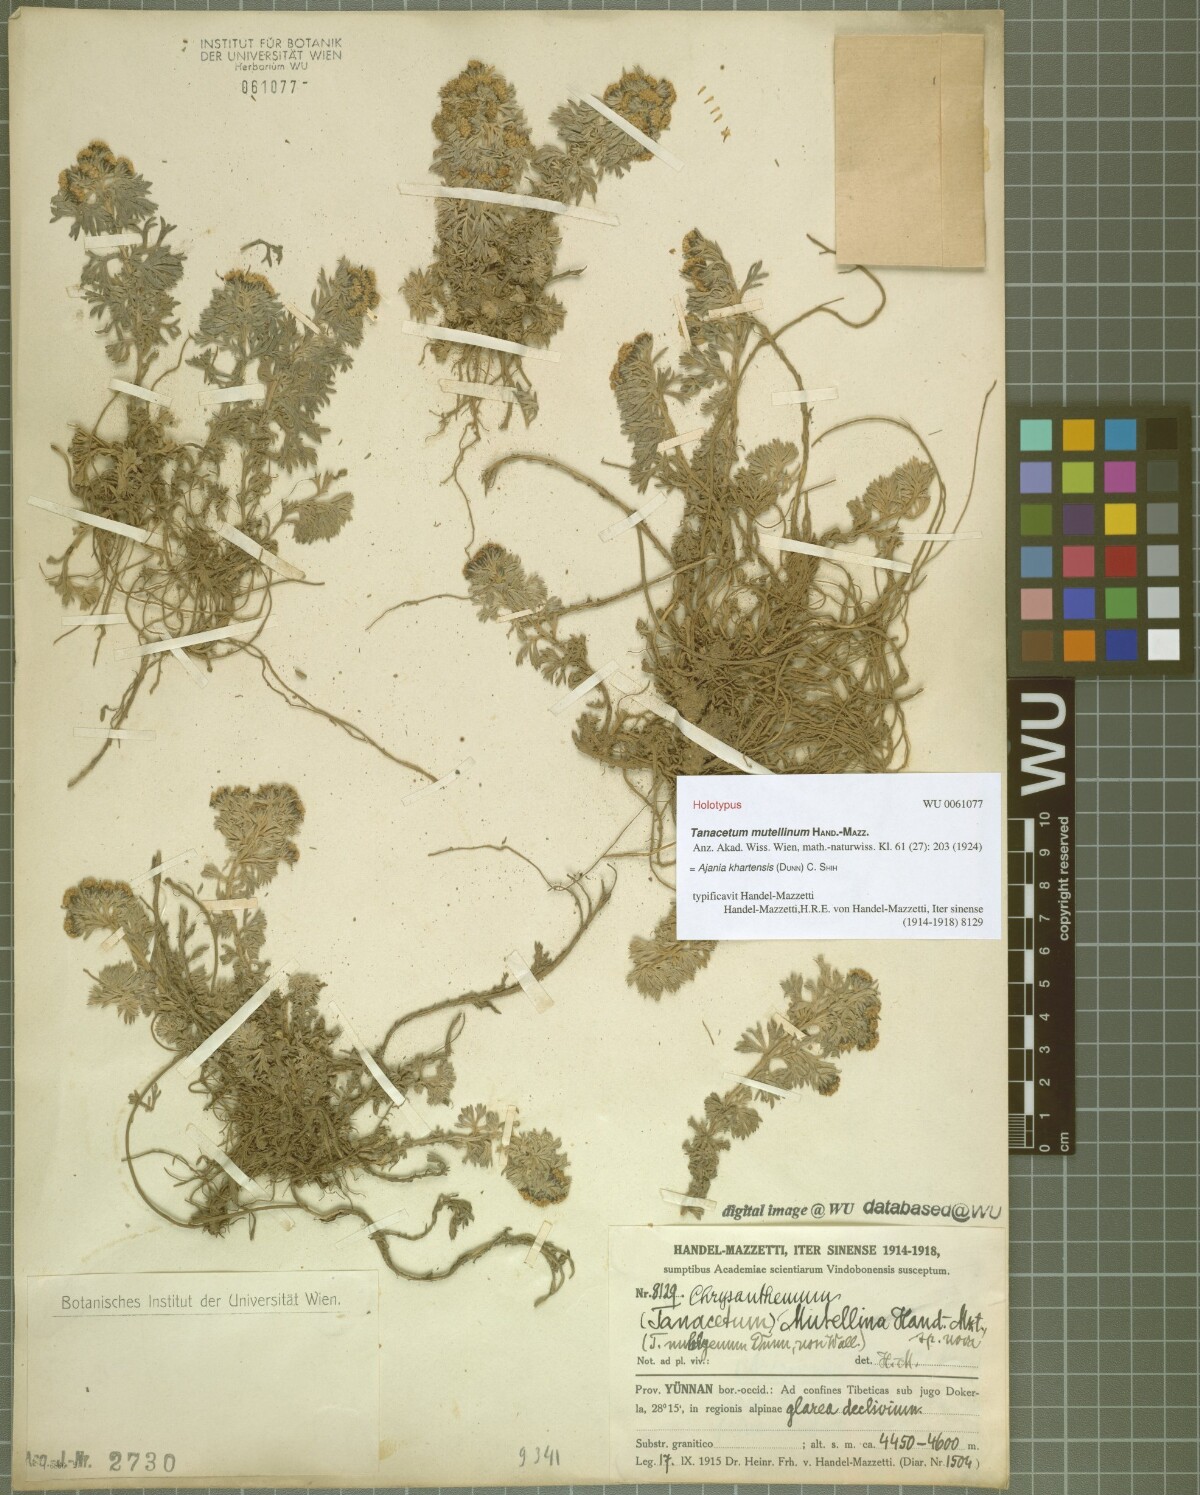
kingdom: Plantae
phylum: Tracheophyta
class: Magnoliopsida
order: Asterales
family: Asteraceae
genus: Ajania
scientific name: Ajania khartensis
